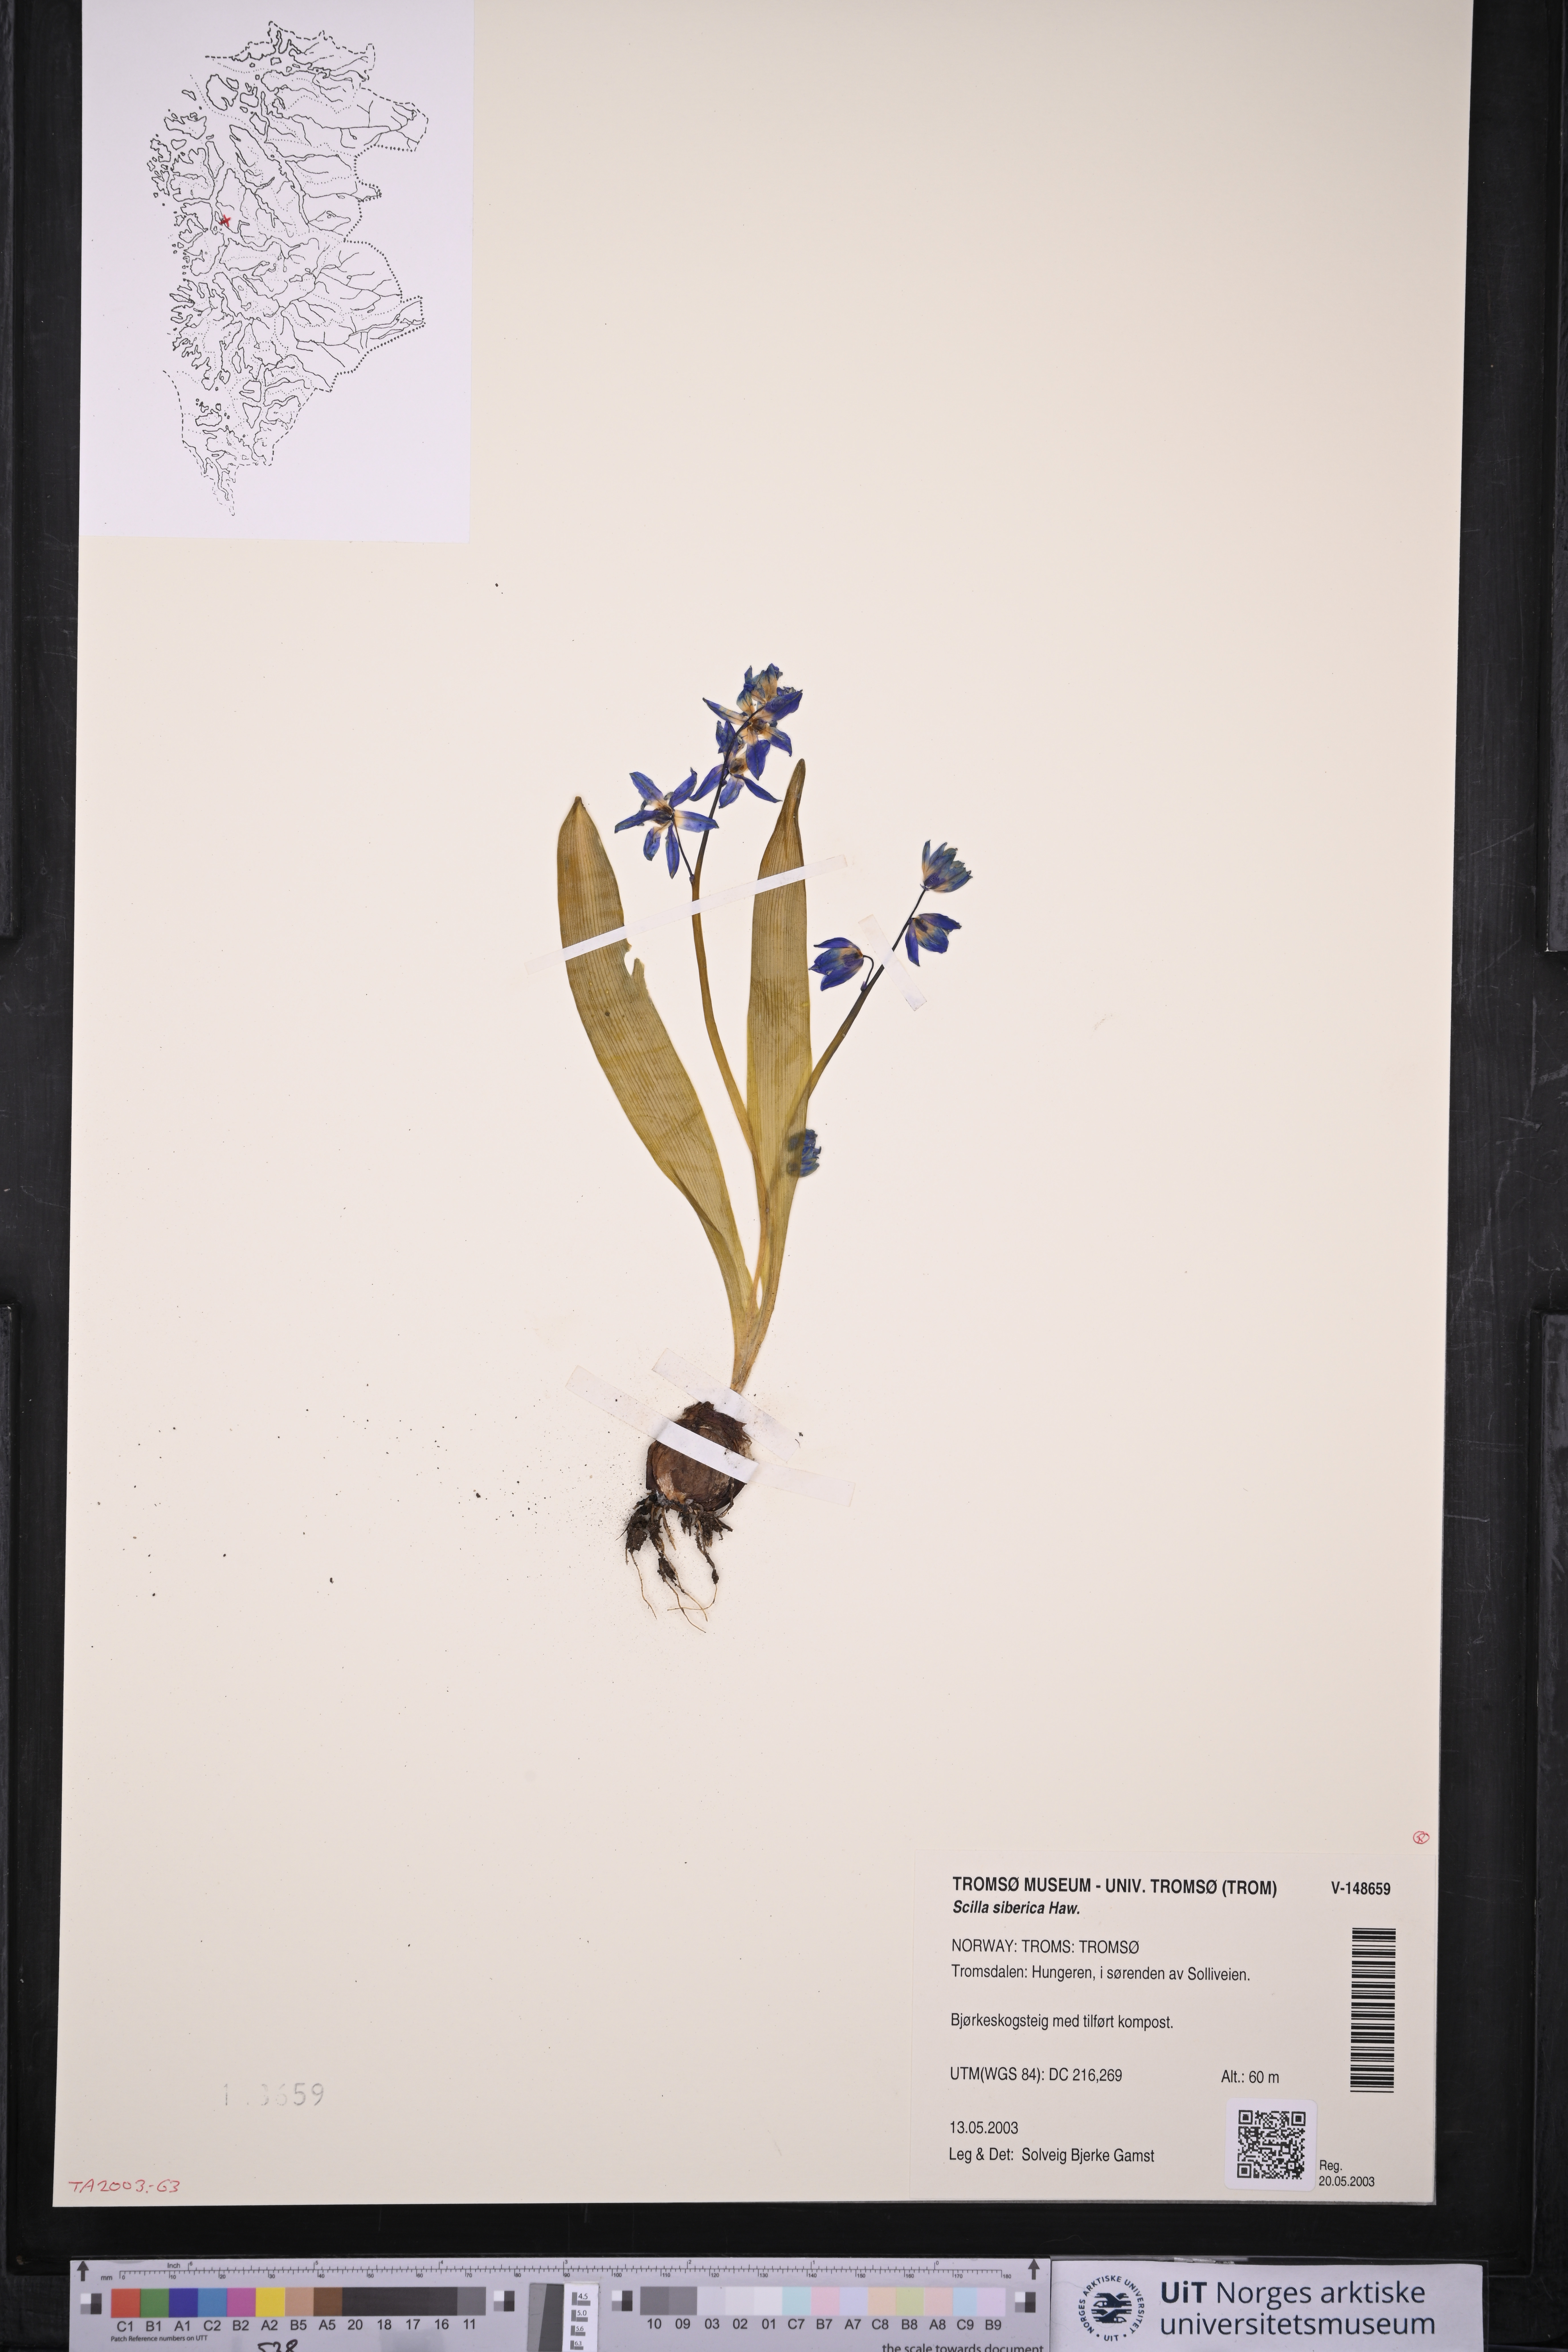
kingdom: Plantae
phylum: Tracheophyta
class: Liliopsida
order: Asparagales
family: Asparagaceae
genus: Scilla
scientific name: Scilla siberica
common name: Siberian squill
